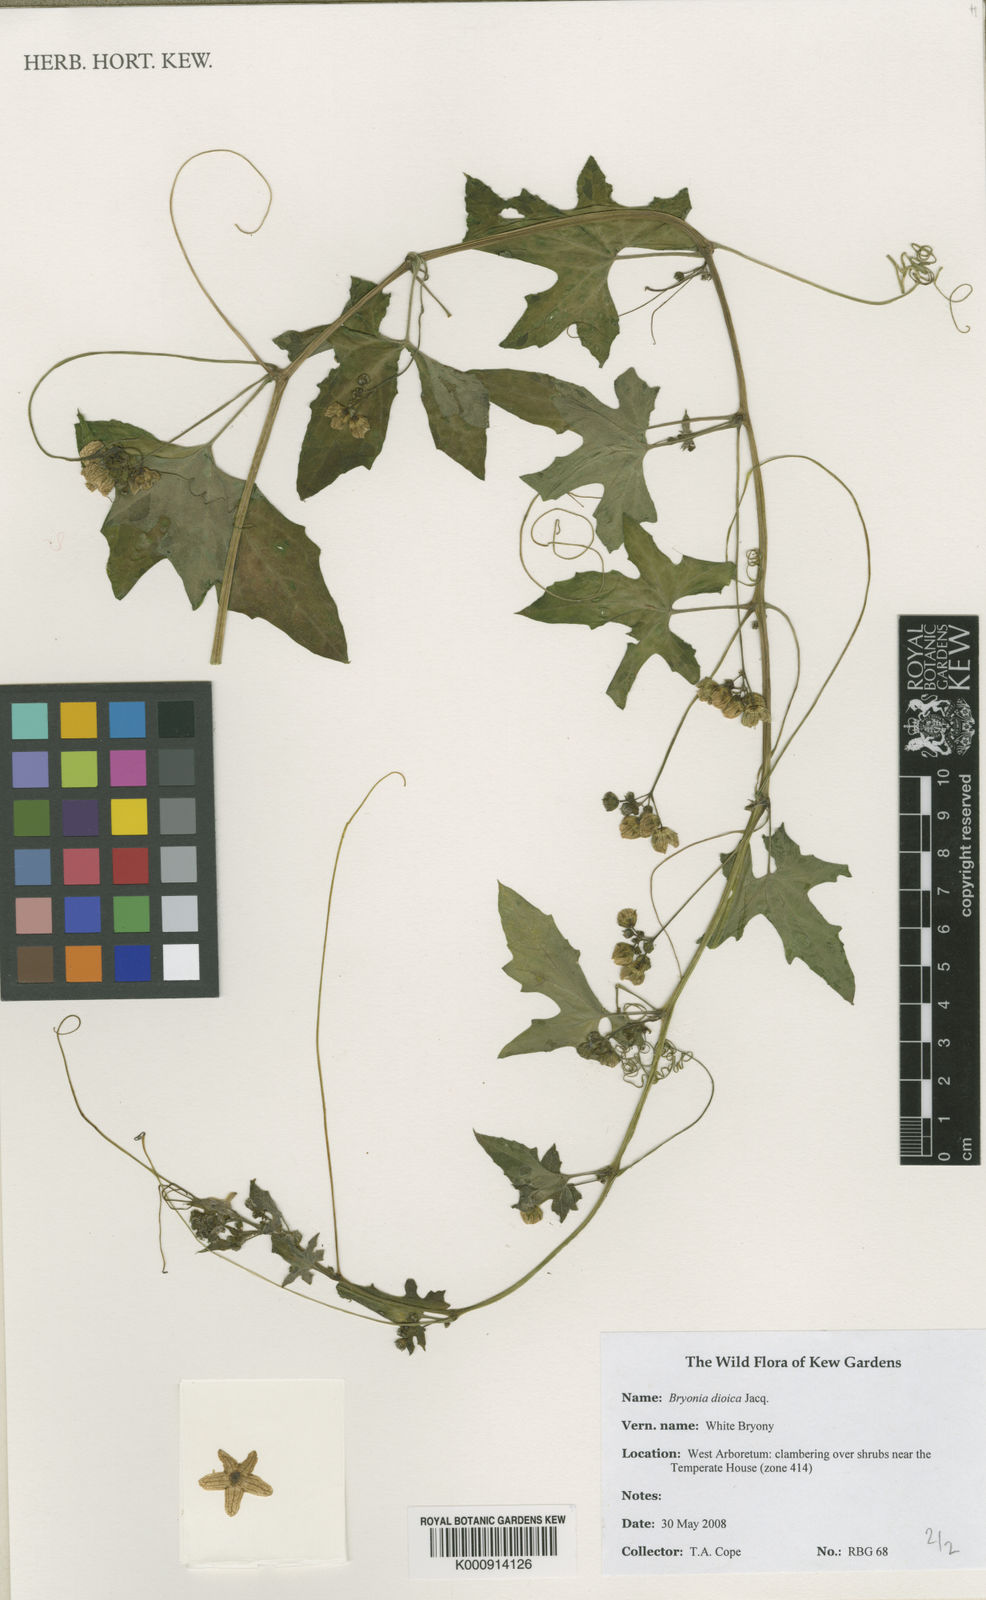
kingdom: Plantae
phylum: Tracheophyta
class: Magnoliopsida
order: Cucurbitales
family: Cucurbitaceae
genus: Bryonia
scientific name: Bryonia dioica
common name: White bryony
